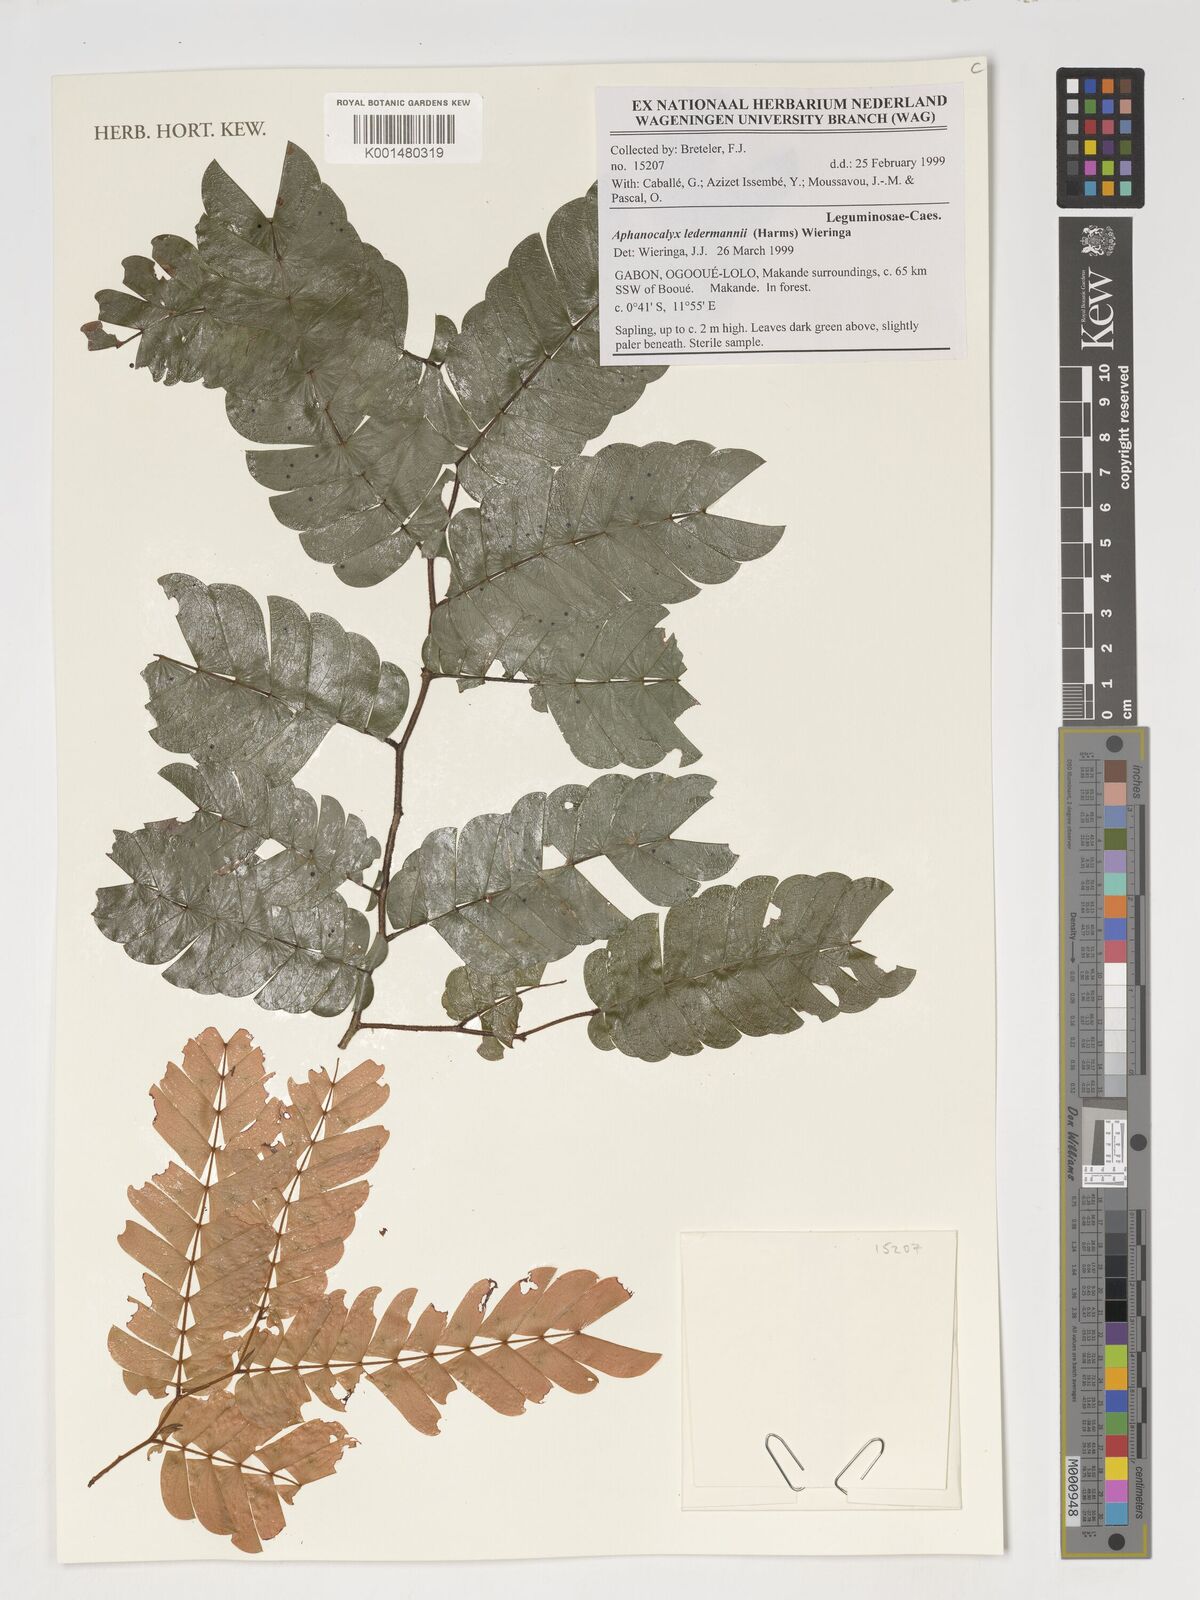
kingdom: Plantae
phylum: Tracheophyta
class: Magnoliopsida
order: Fabales
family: Fabaceae
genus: Aphanocalyx
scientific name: Aphanocalyx ledermannii
